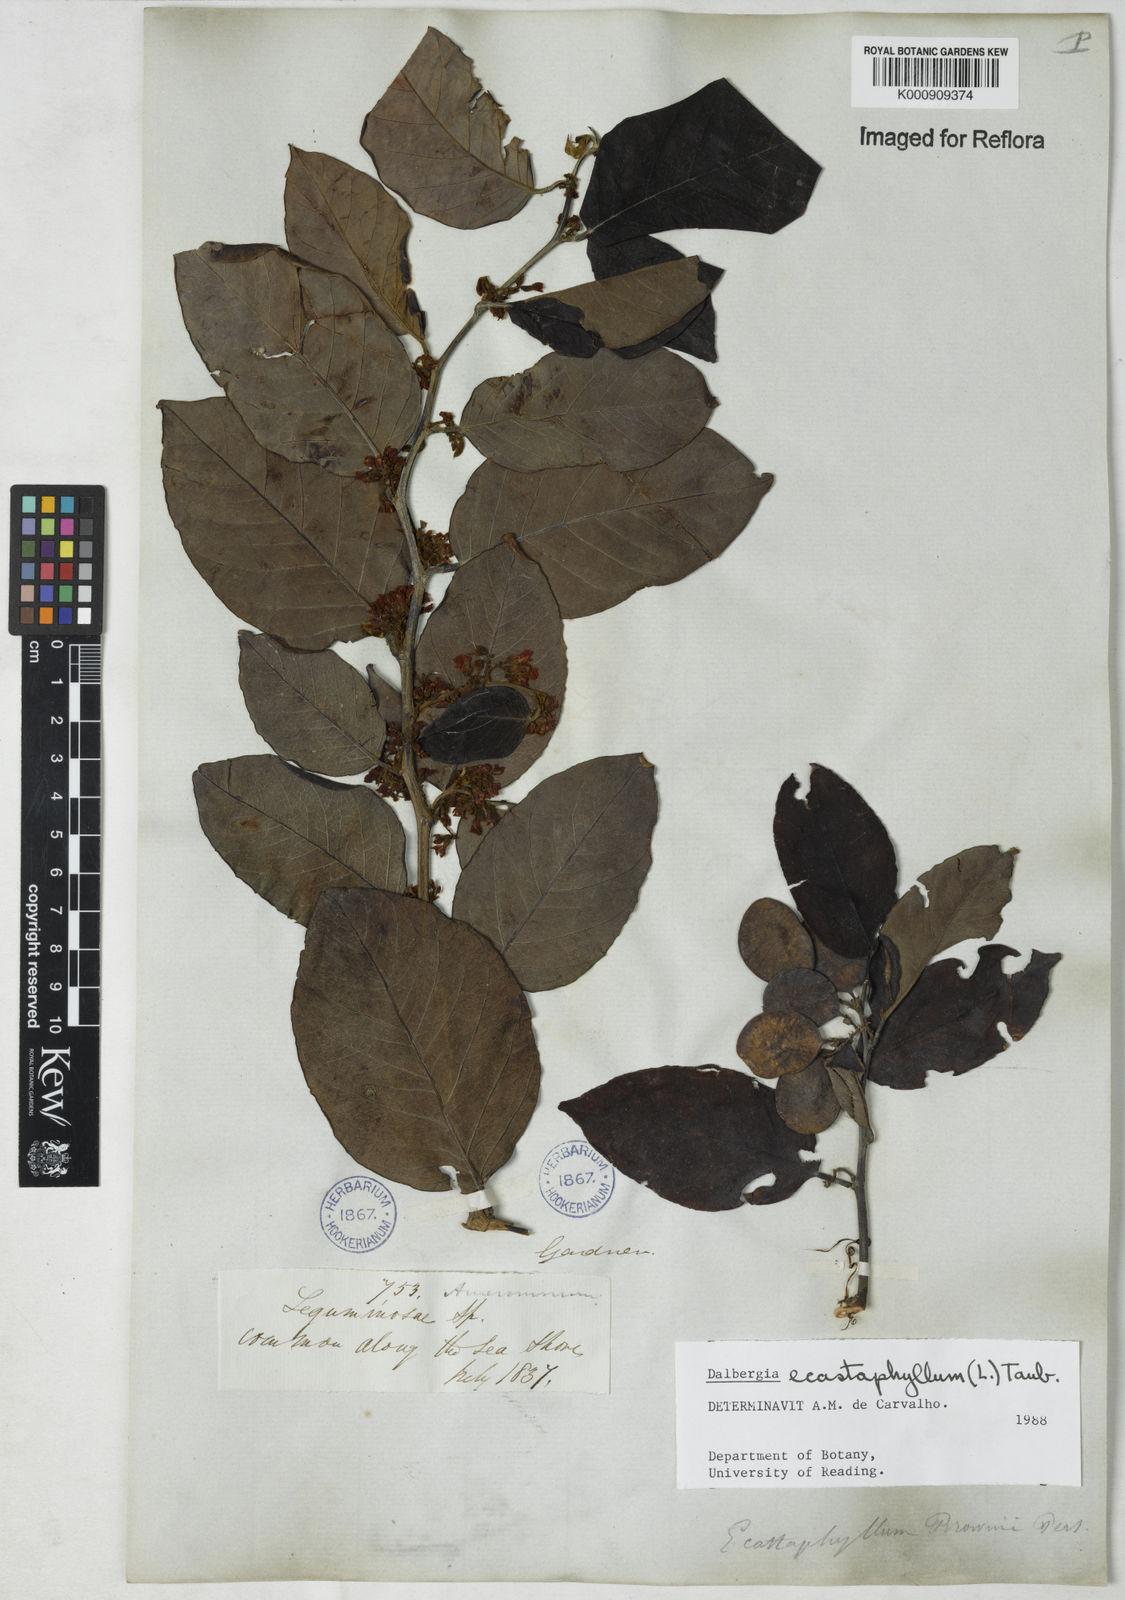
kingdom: Plantae
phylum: Tracheophyta
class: Magnoliopsida
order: Fabales
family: Fabaceae
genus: Dalbergia
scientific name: Dalbergia ecastaphyllum
